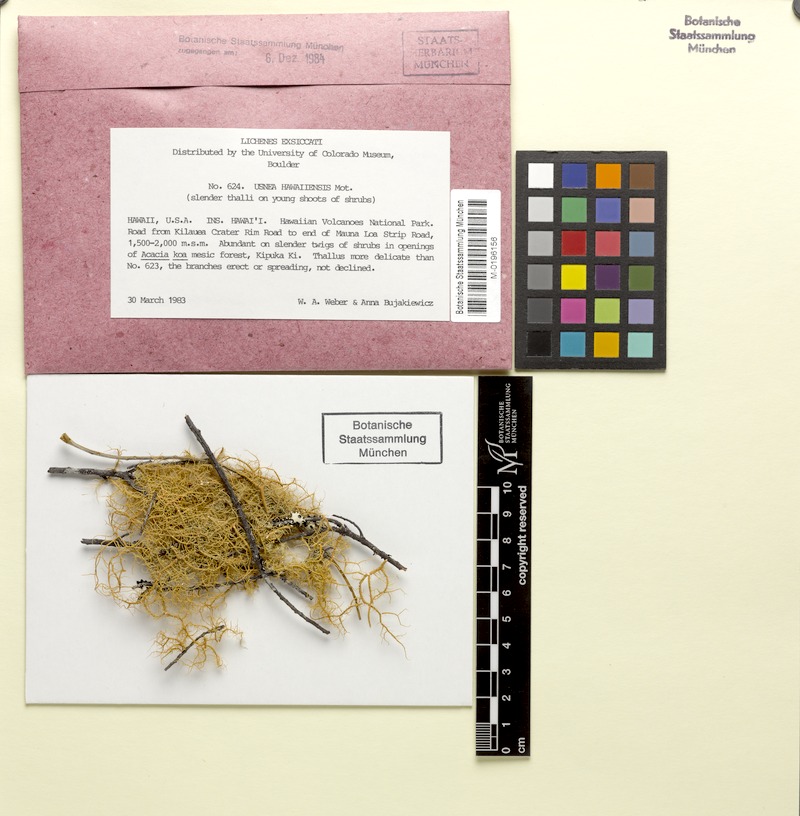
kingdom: Fungi
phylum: Ascomycota
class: Lecanoromycetes
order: Lecanorales
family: Parmeliaceae
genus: Usnea
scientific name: Usnea hawaiiensis
